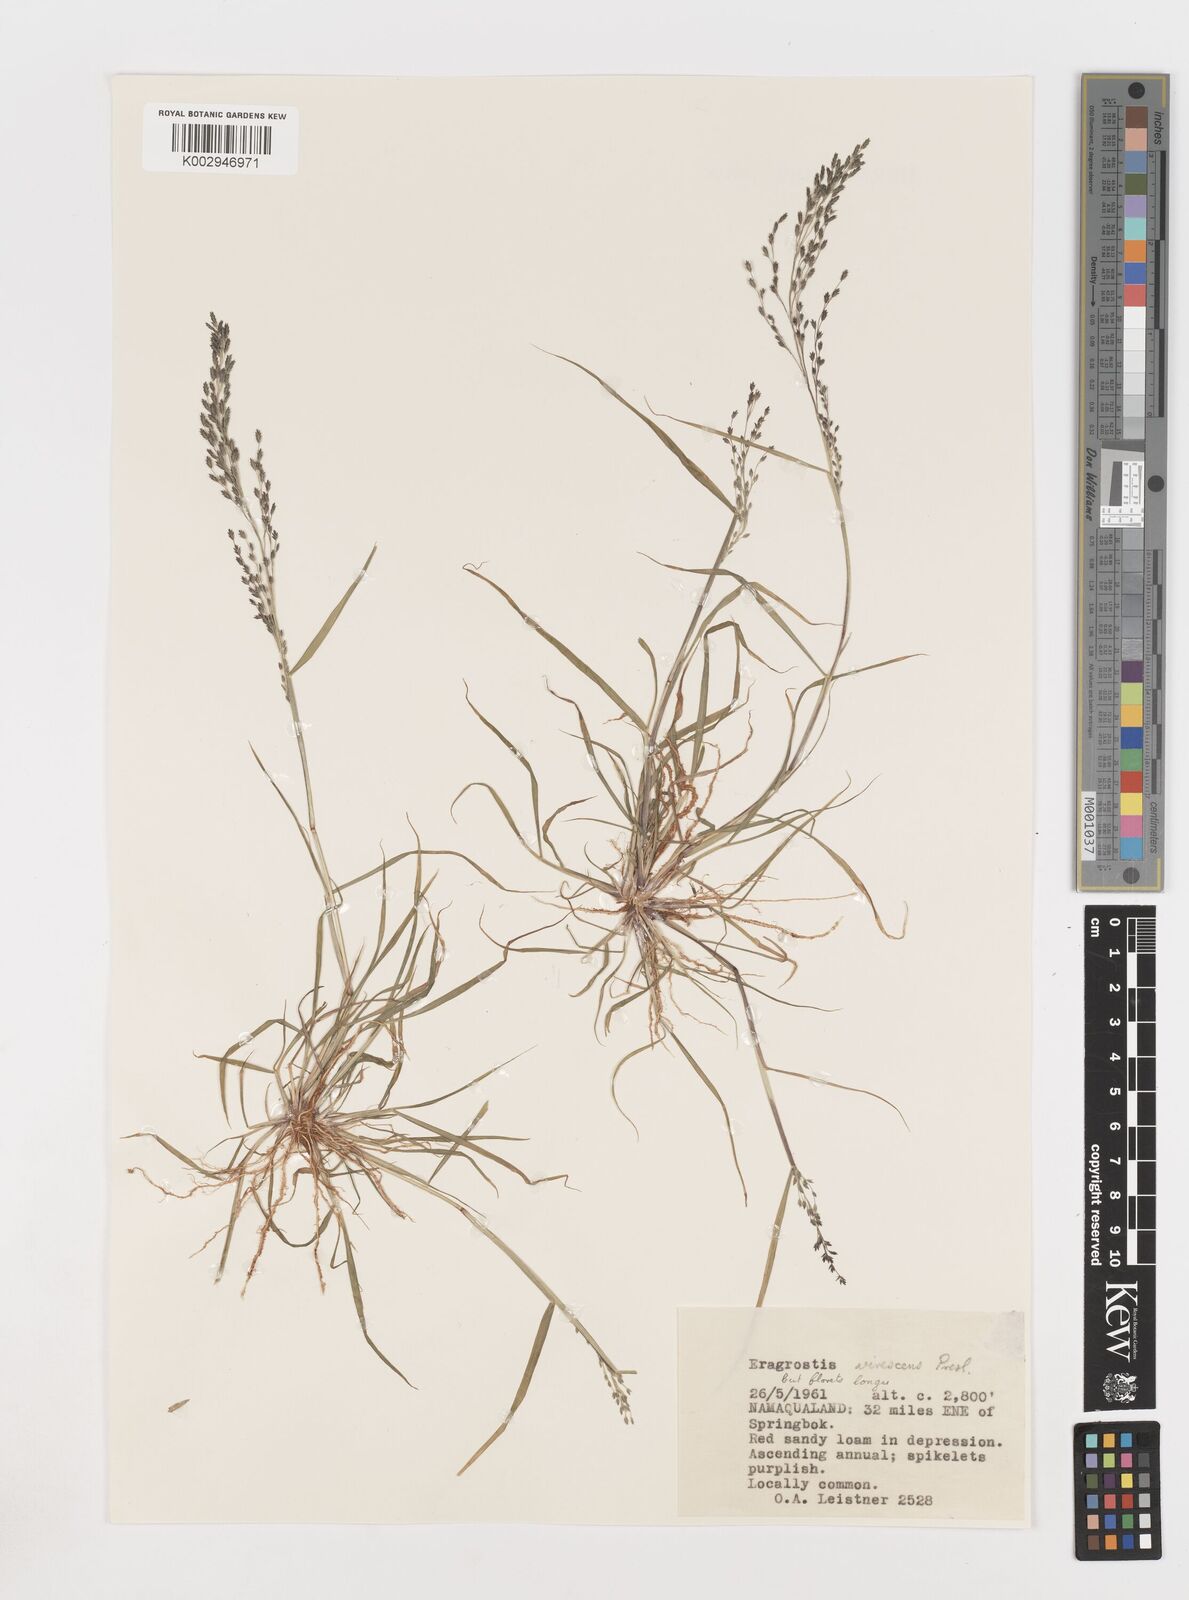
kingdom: Plantae
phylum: Tracheophyta
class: Liliopsida
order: Poales
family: Poaceae
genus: Eragrostis
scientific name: Eragrostis
